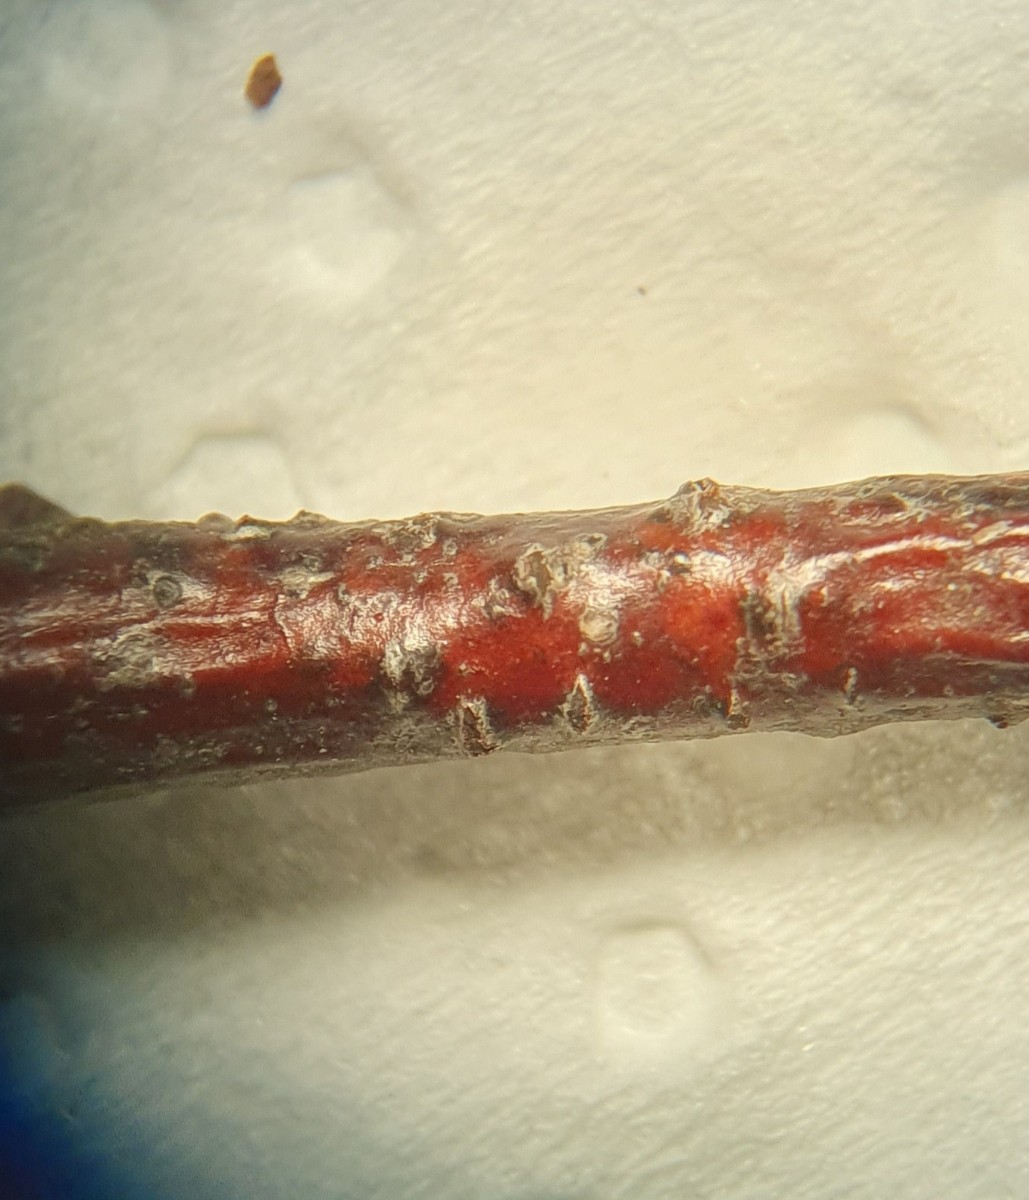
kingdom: Fungi
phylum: Ascomycota
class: Sordariomycetes
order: Diaporthales
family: Gnomoniaceae
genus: Cryptosporella
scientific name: Cryptosporella betulae
